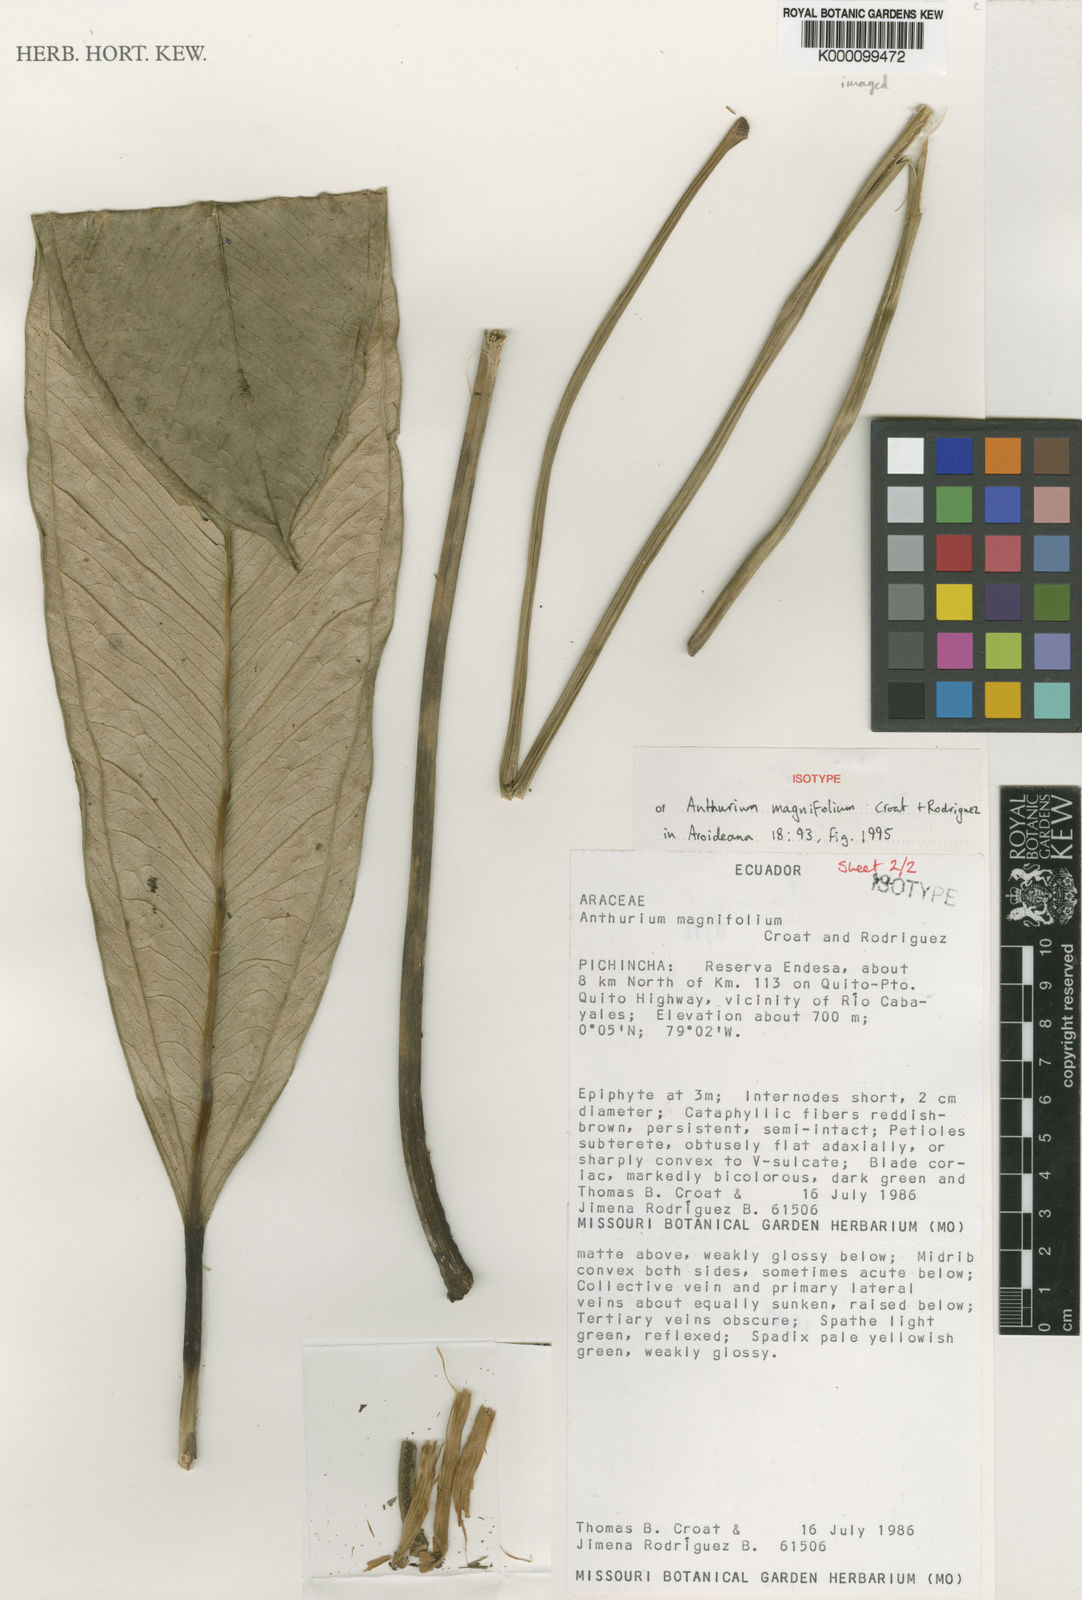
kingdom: Plantae
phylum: Tracheophyta
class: Liliopsida
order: Alismatales
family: Araceae
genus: Anthurium
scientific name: Anthurium magnifolium
